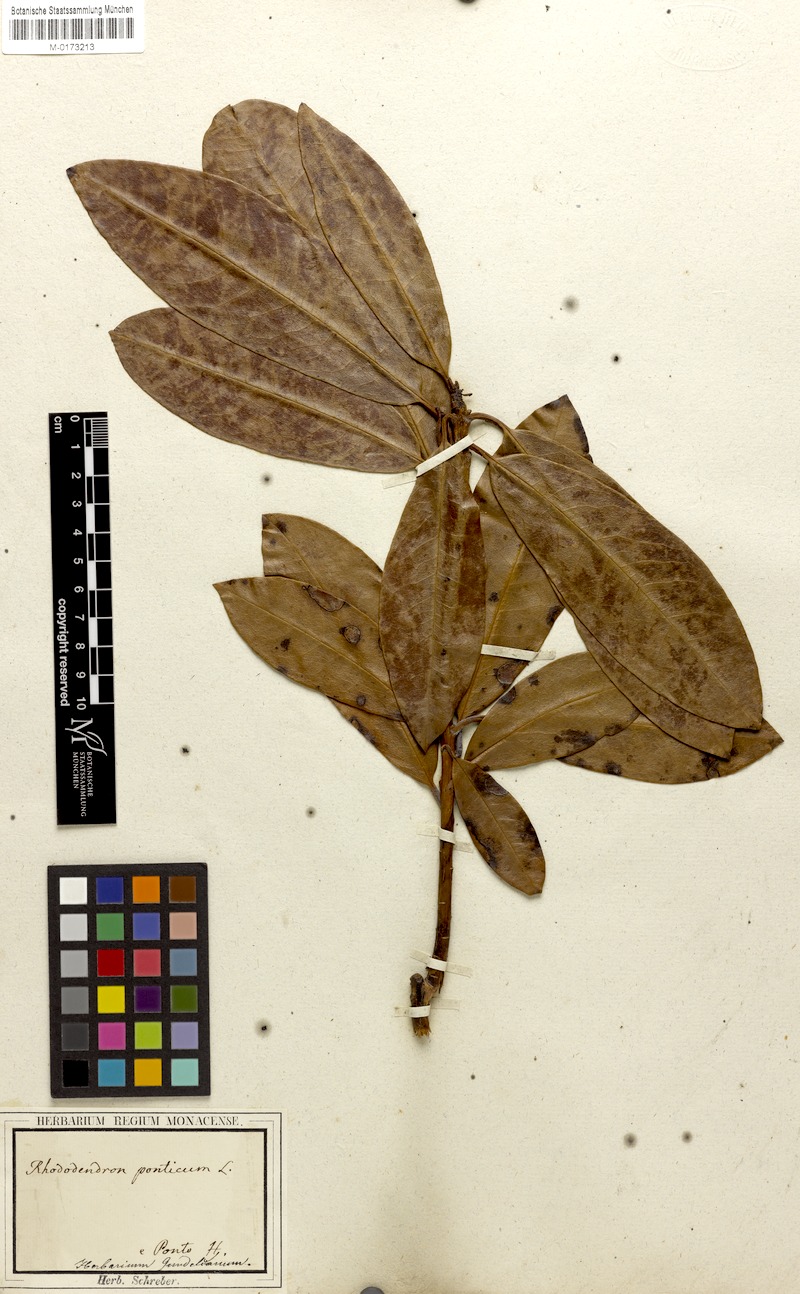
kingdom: Plantae
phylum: Tracheophyta
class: Magnoliopsida
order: Ericales
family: Ericaceae
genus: Rhododendron
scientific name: Rhododendron ponticum
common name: Rhododendron
